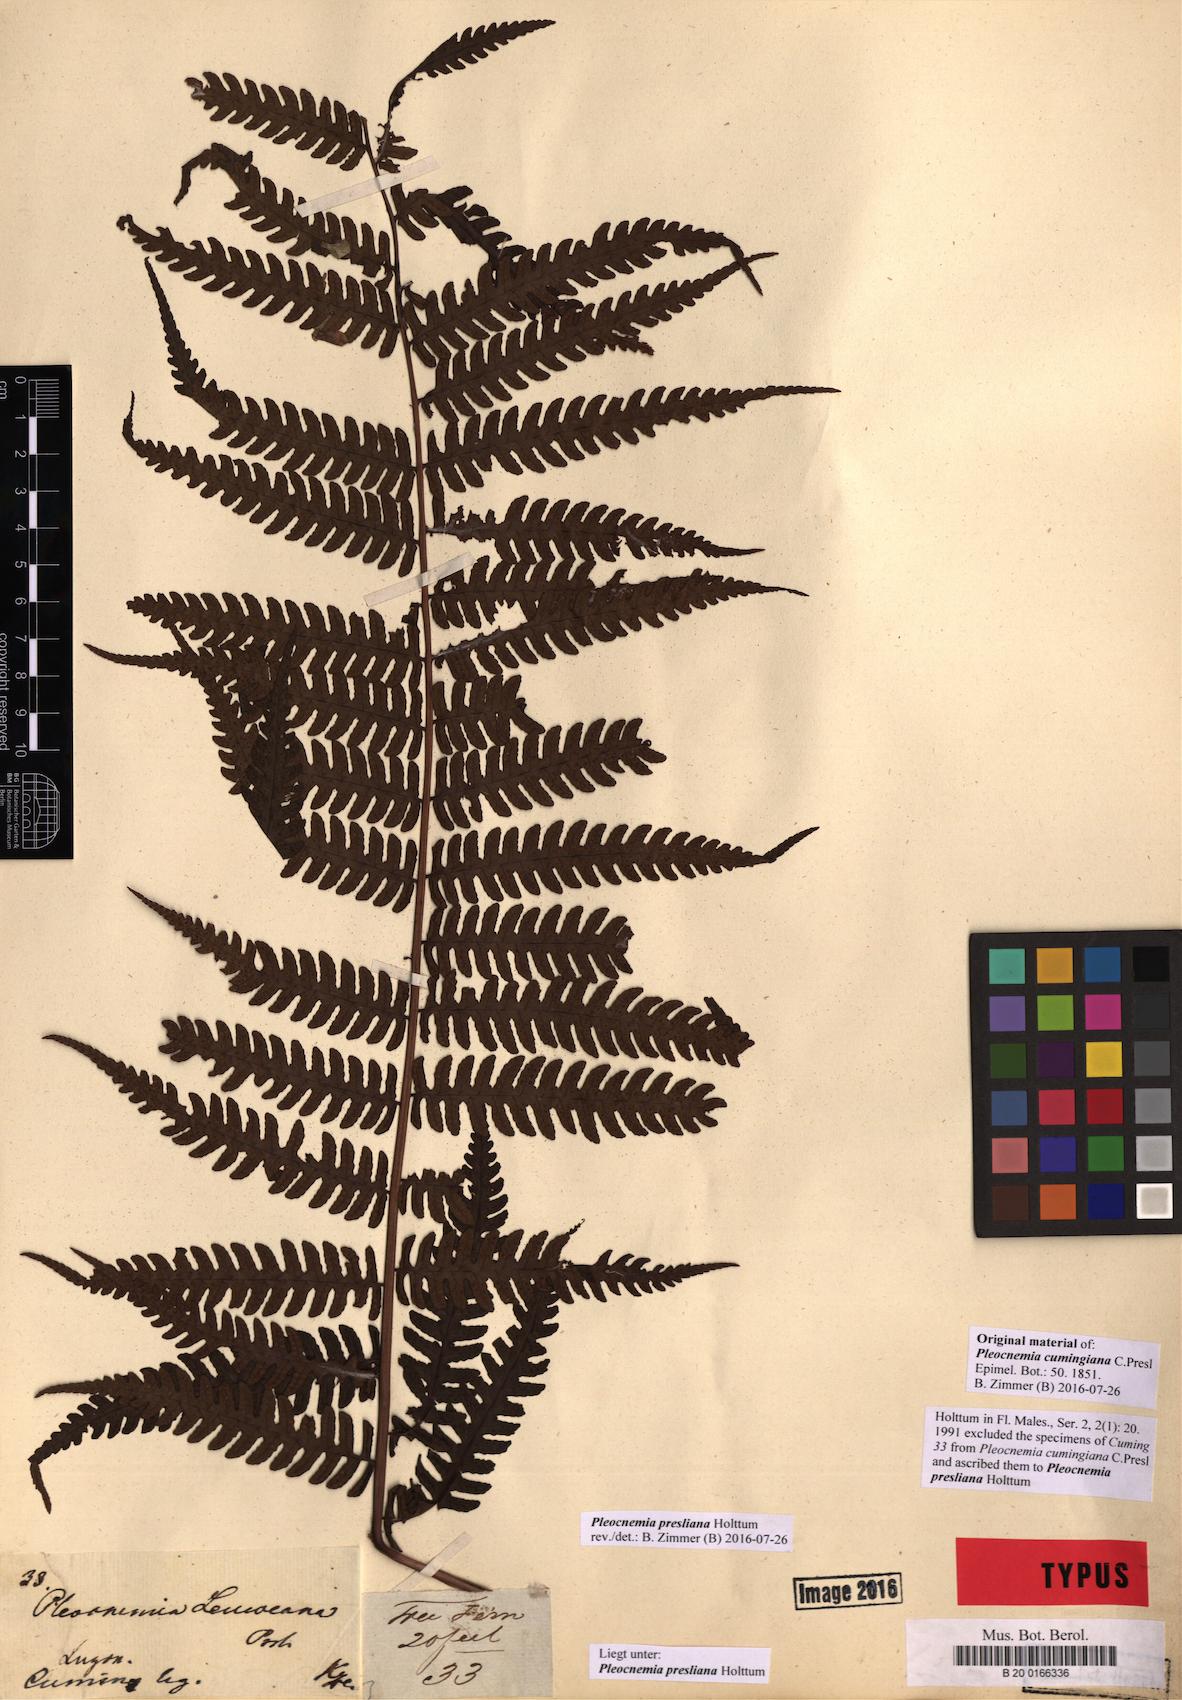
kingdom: Plantae
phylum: Tracheophyta
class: Polypodiopsida
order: Polypodiales
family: Dryopteridaceae
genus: Pleocnemia
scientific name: Pleocnemia presliana
